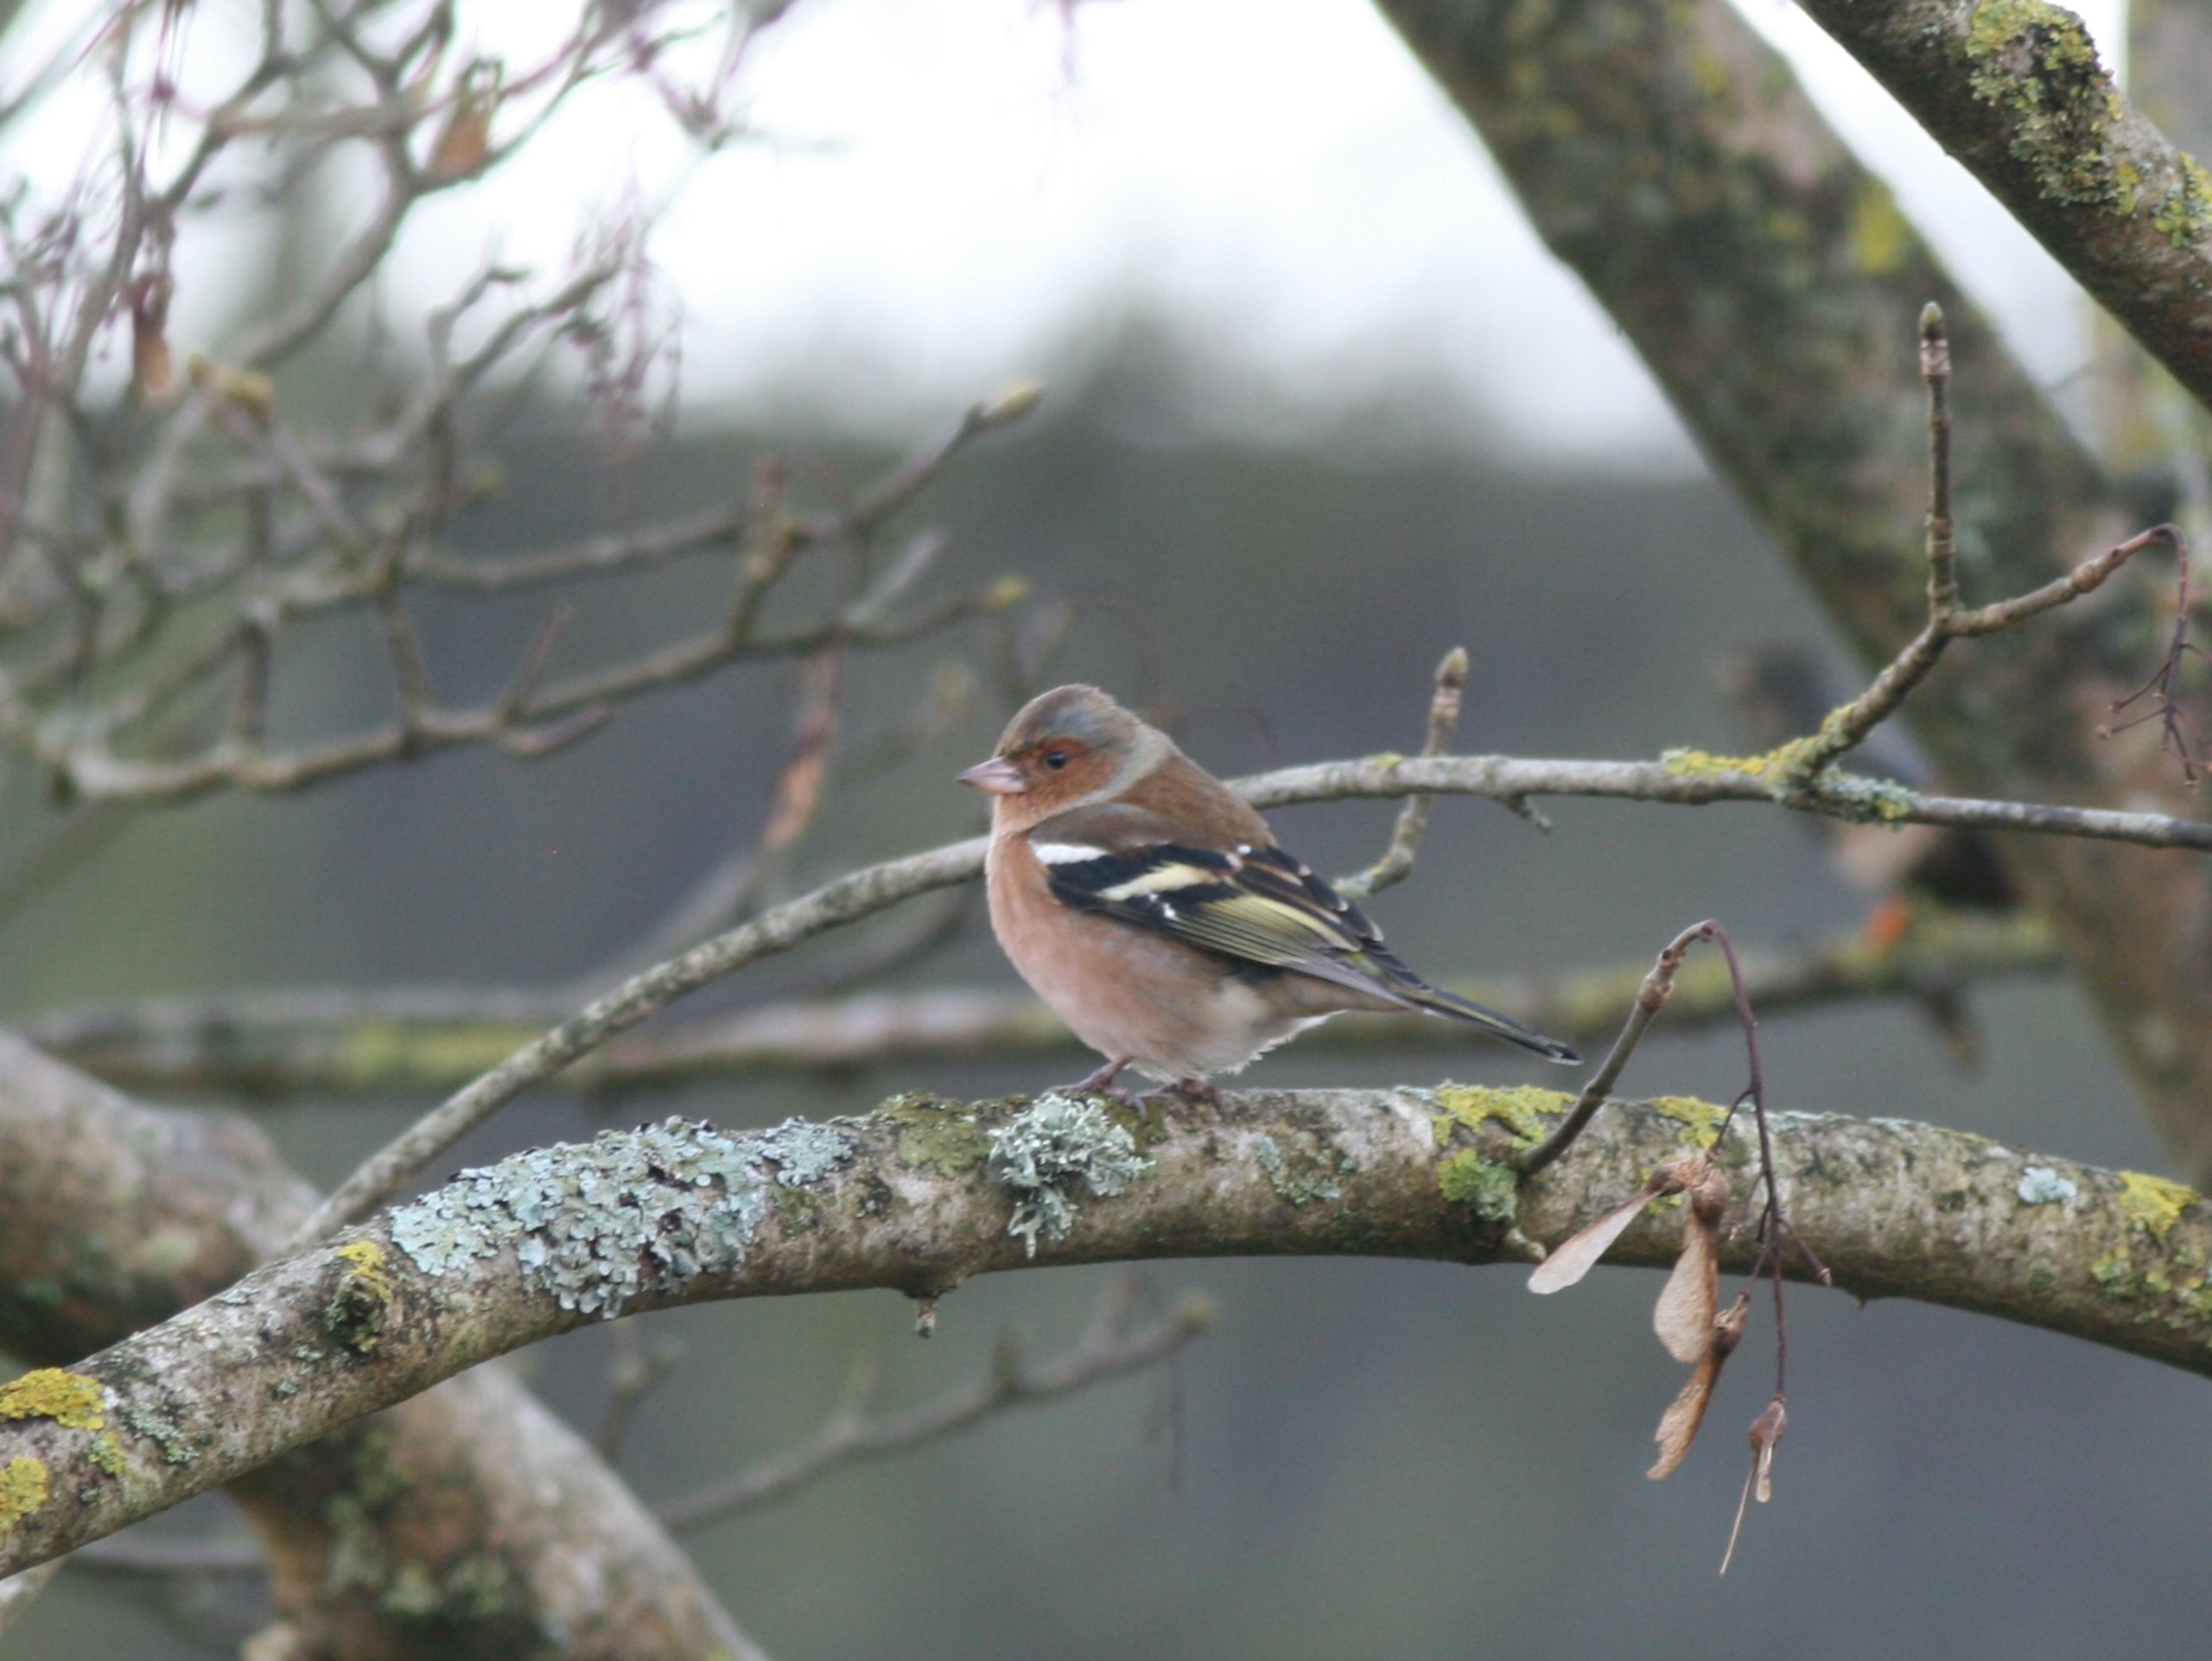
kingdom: Animalia
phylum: Chordata
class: Aves
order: Passeriformes
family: Fringillidae
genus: Fringilla
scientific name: Fringilla coelebs
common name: Bogfinke
